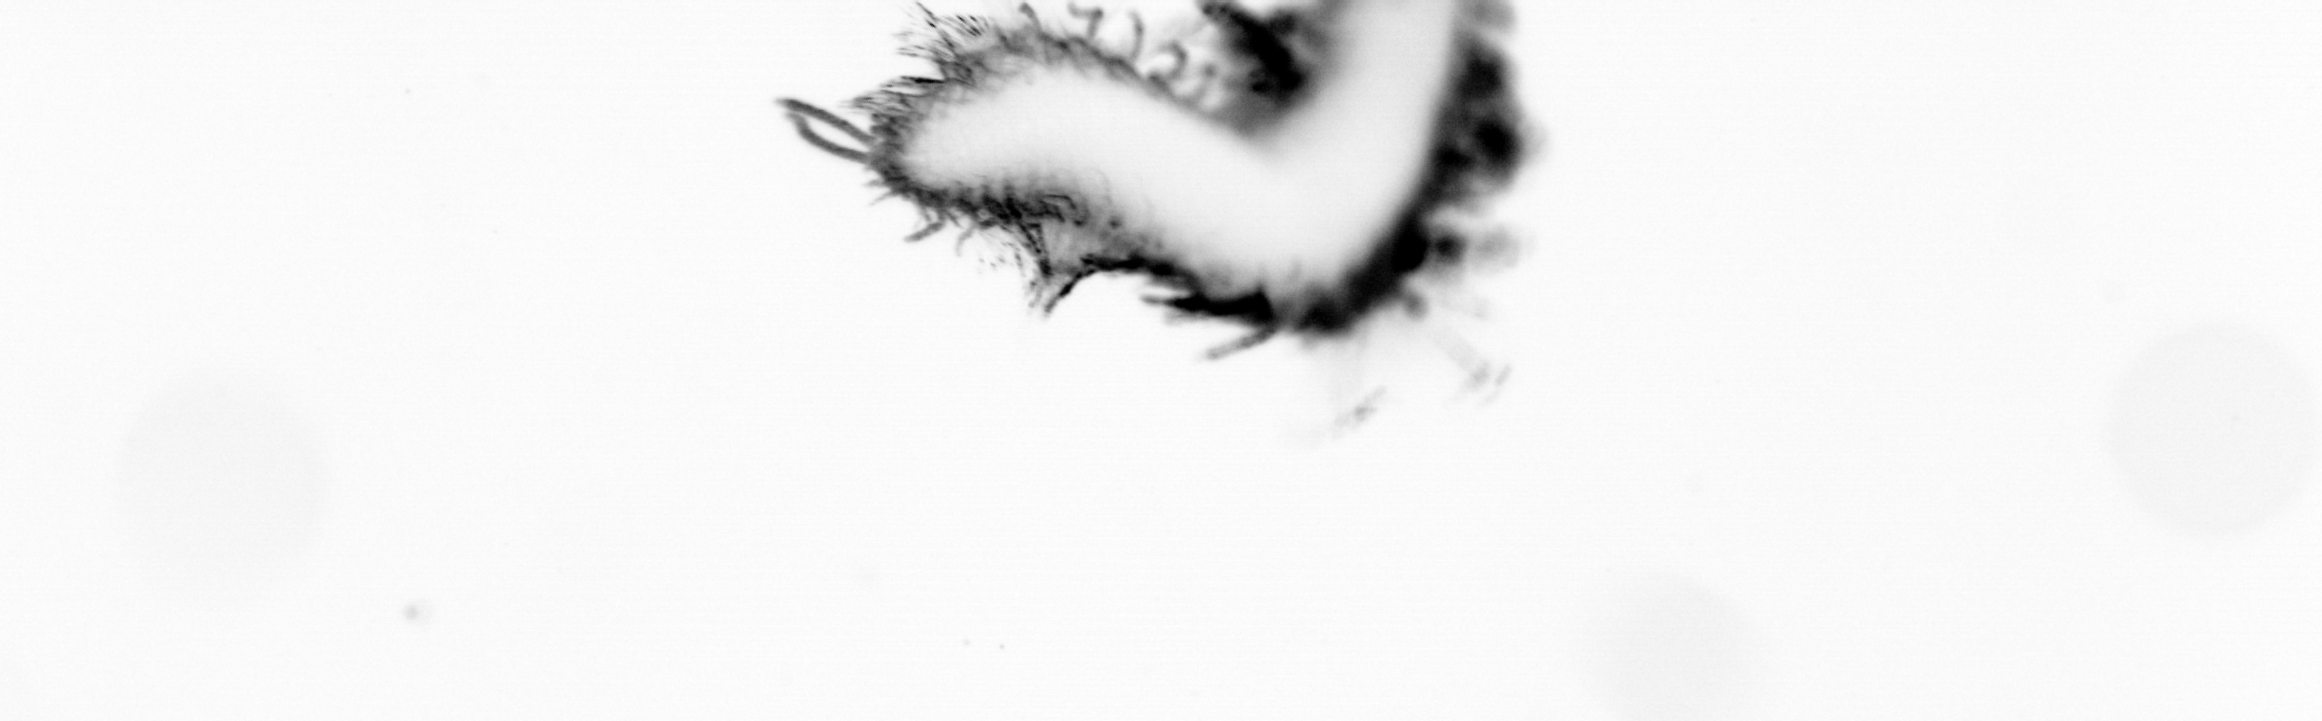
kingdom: Animalia
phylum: Annelida
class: Polychaeta
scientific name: Polychaeta
